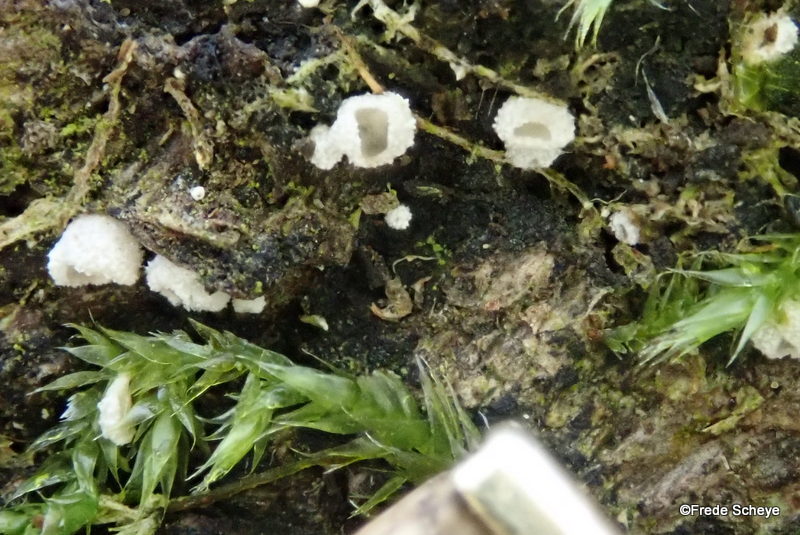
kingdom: Fungi
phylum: Basidiomycota
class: Agaricomycetes
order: Agaricales
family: Chromocyphellaceae
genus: Chromocyphella
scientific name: Chromocyphella muscicola
